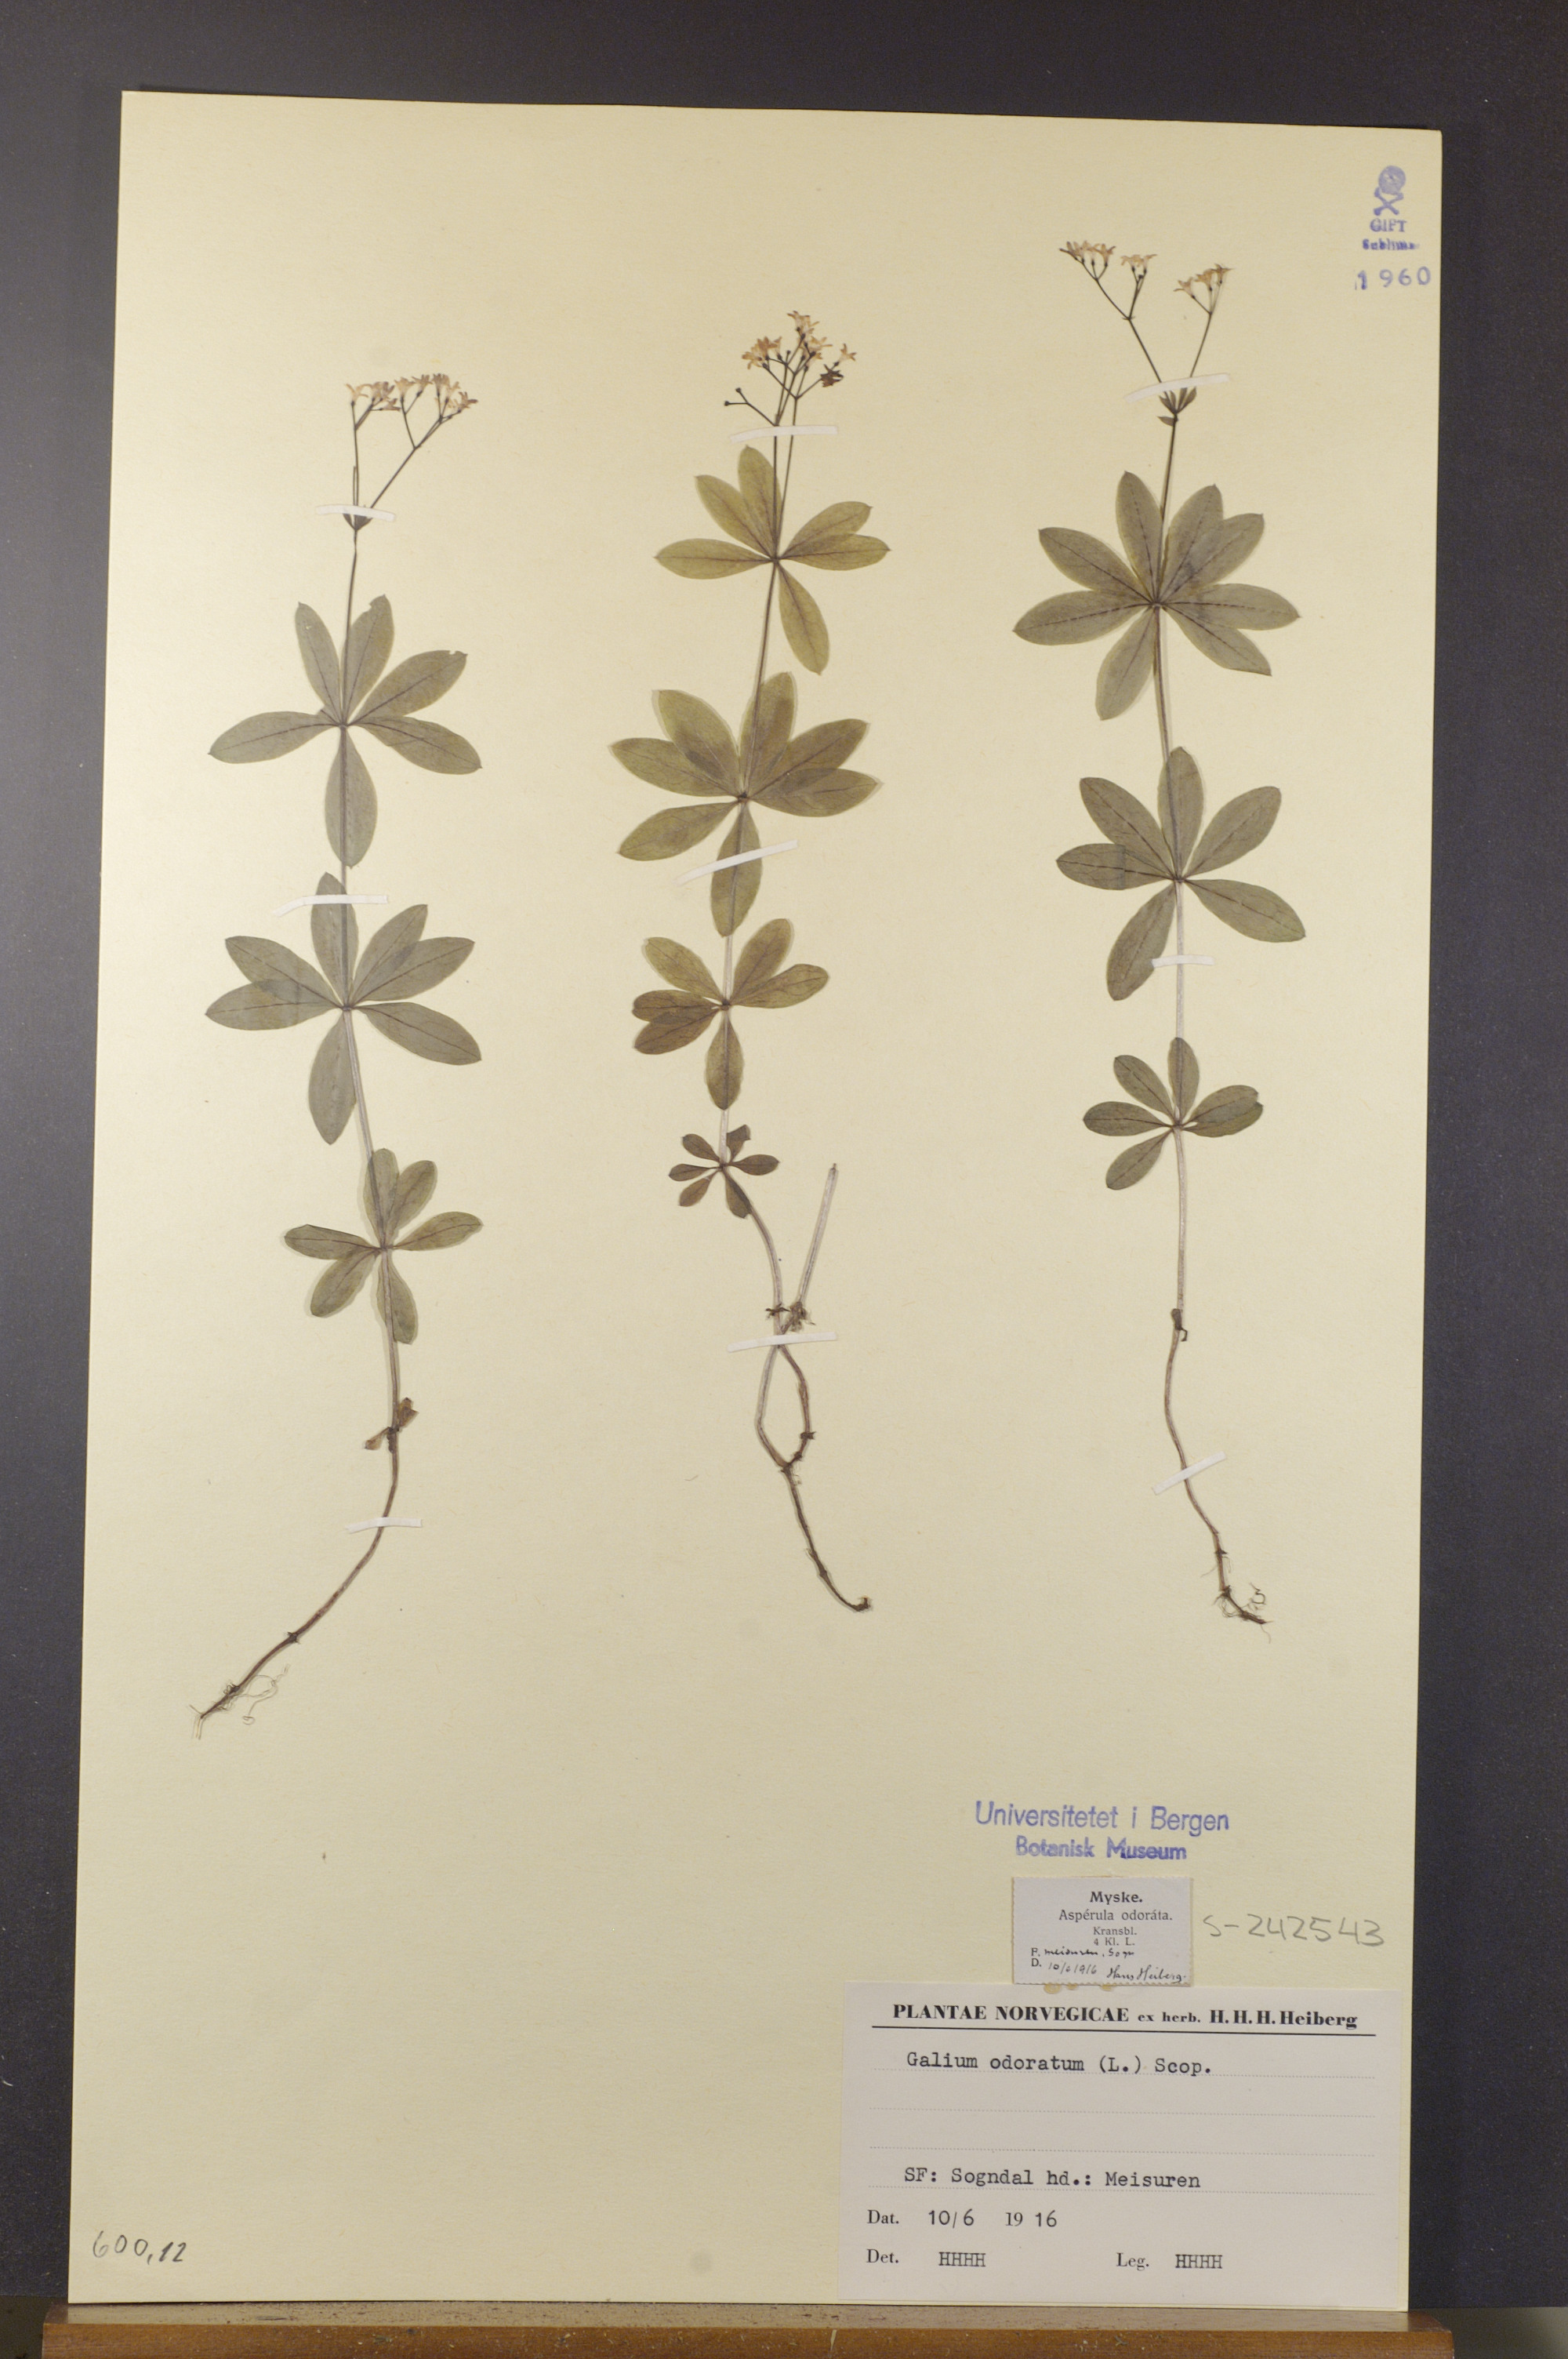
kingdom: Plantae
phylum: Tracheophyta
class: Magnoliopsida
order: Gentianales
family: Rubiaceae
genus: Galium
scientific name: Galium odoratum
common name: Sweet woodruff
